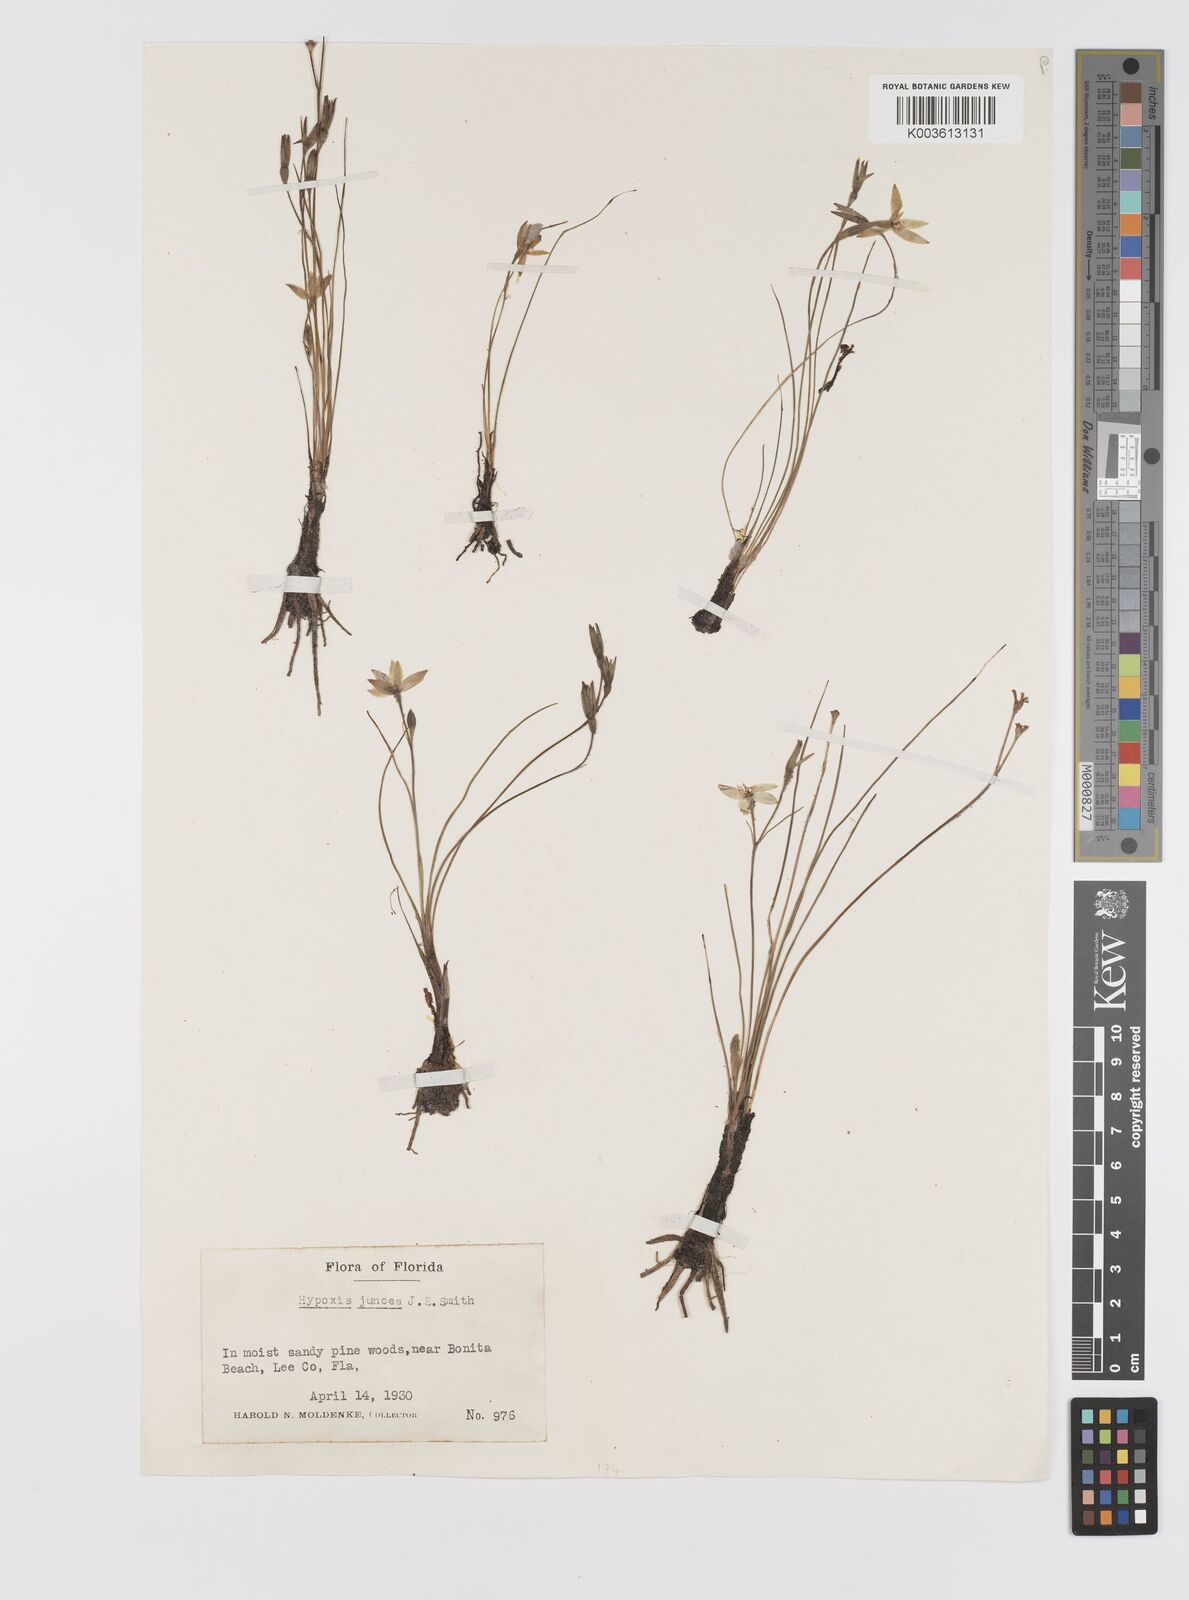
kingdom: Plantae
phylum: Tracheophyta
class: Liliopsida
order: Asparagales
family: Hypoxidaceae
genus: Hypoxis
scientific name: Hypoxis juncea
